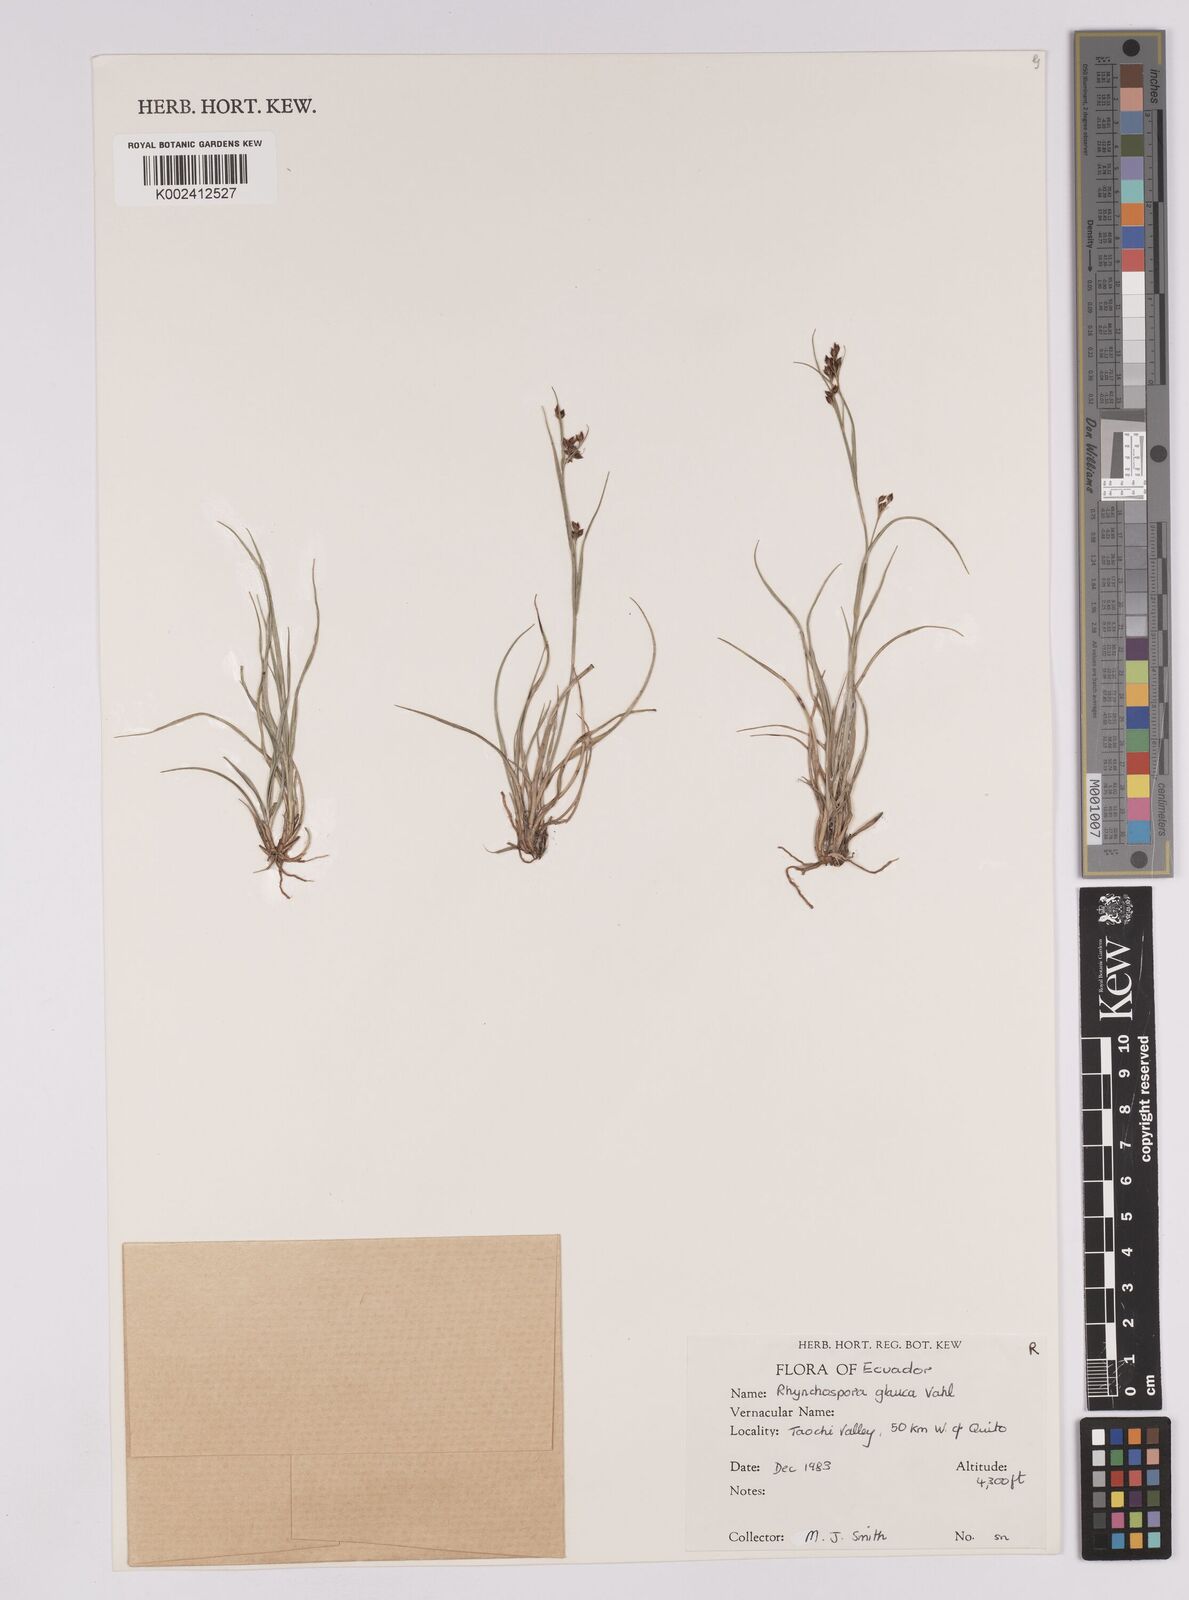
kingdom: Plantae
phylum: Tracheophyta
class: Liliopsida
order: Poales
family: Cyperaceae
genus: Rhynchospora
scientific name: Rhynchospora rugosa
